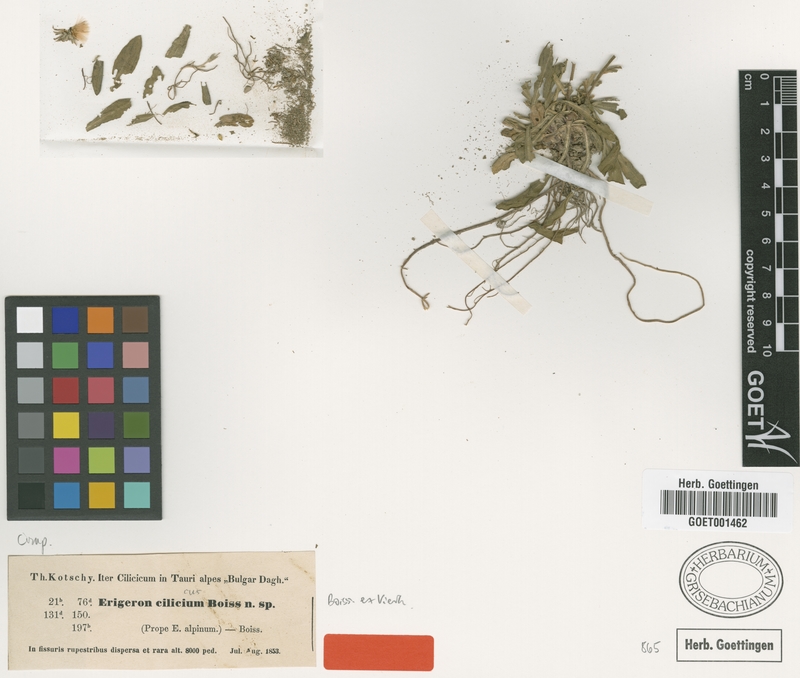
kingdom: Plantae
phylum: Tracheophyta
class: Magnoliopsida
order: Asterales
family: Asteraceae
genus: Erigeron
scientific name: Erigeron cilicicus
